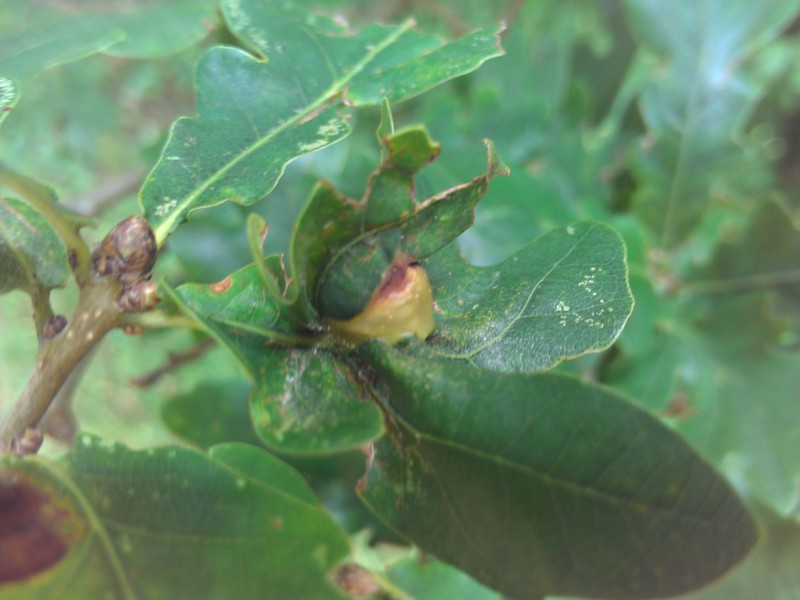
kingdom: Animalia
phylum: Arthropoda
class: Insecta
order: Hymenoptera
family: Cynipidae
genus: Andricus
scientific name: Andricus curvator
